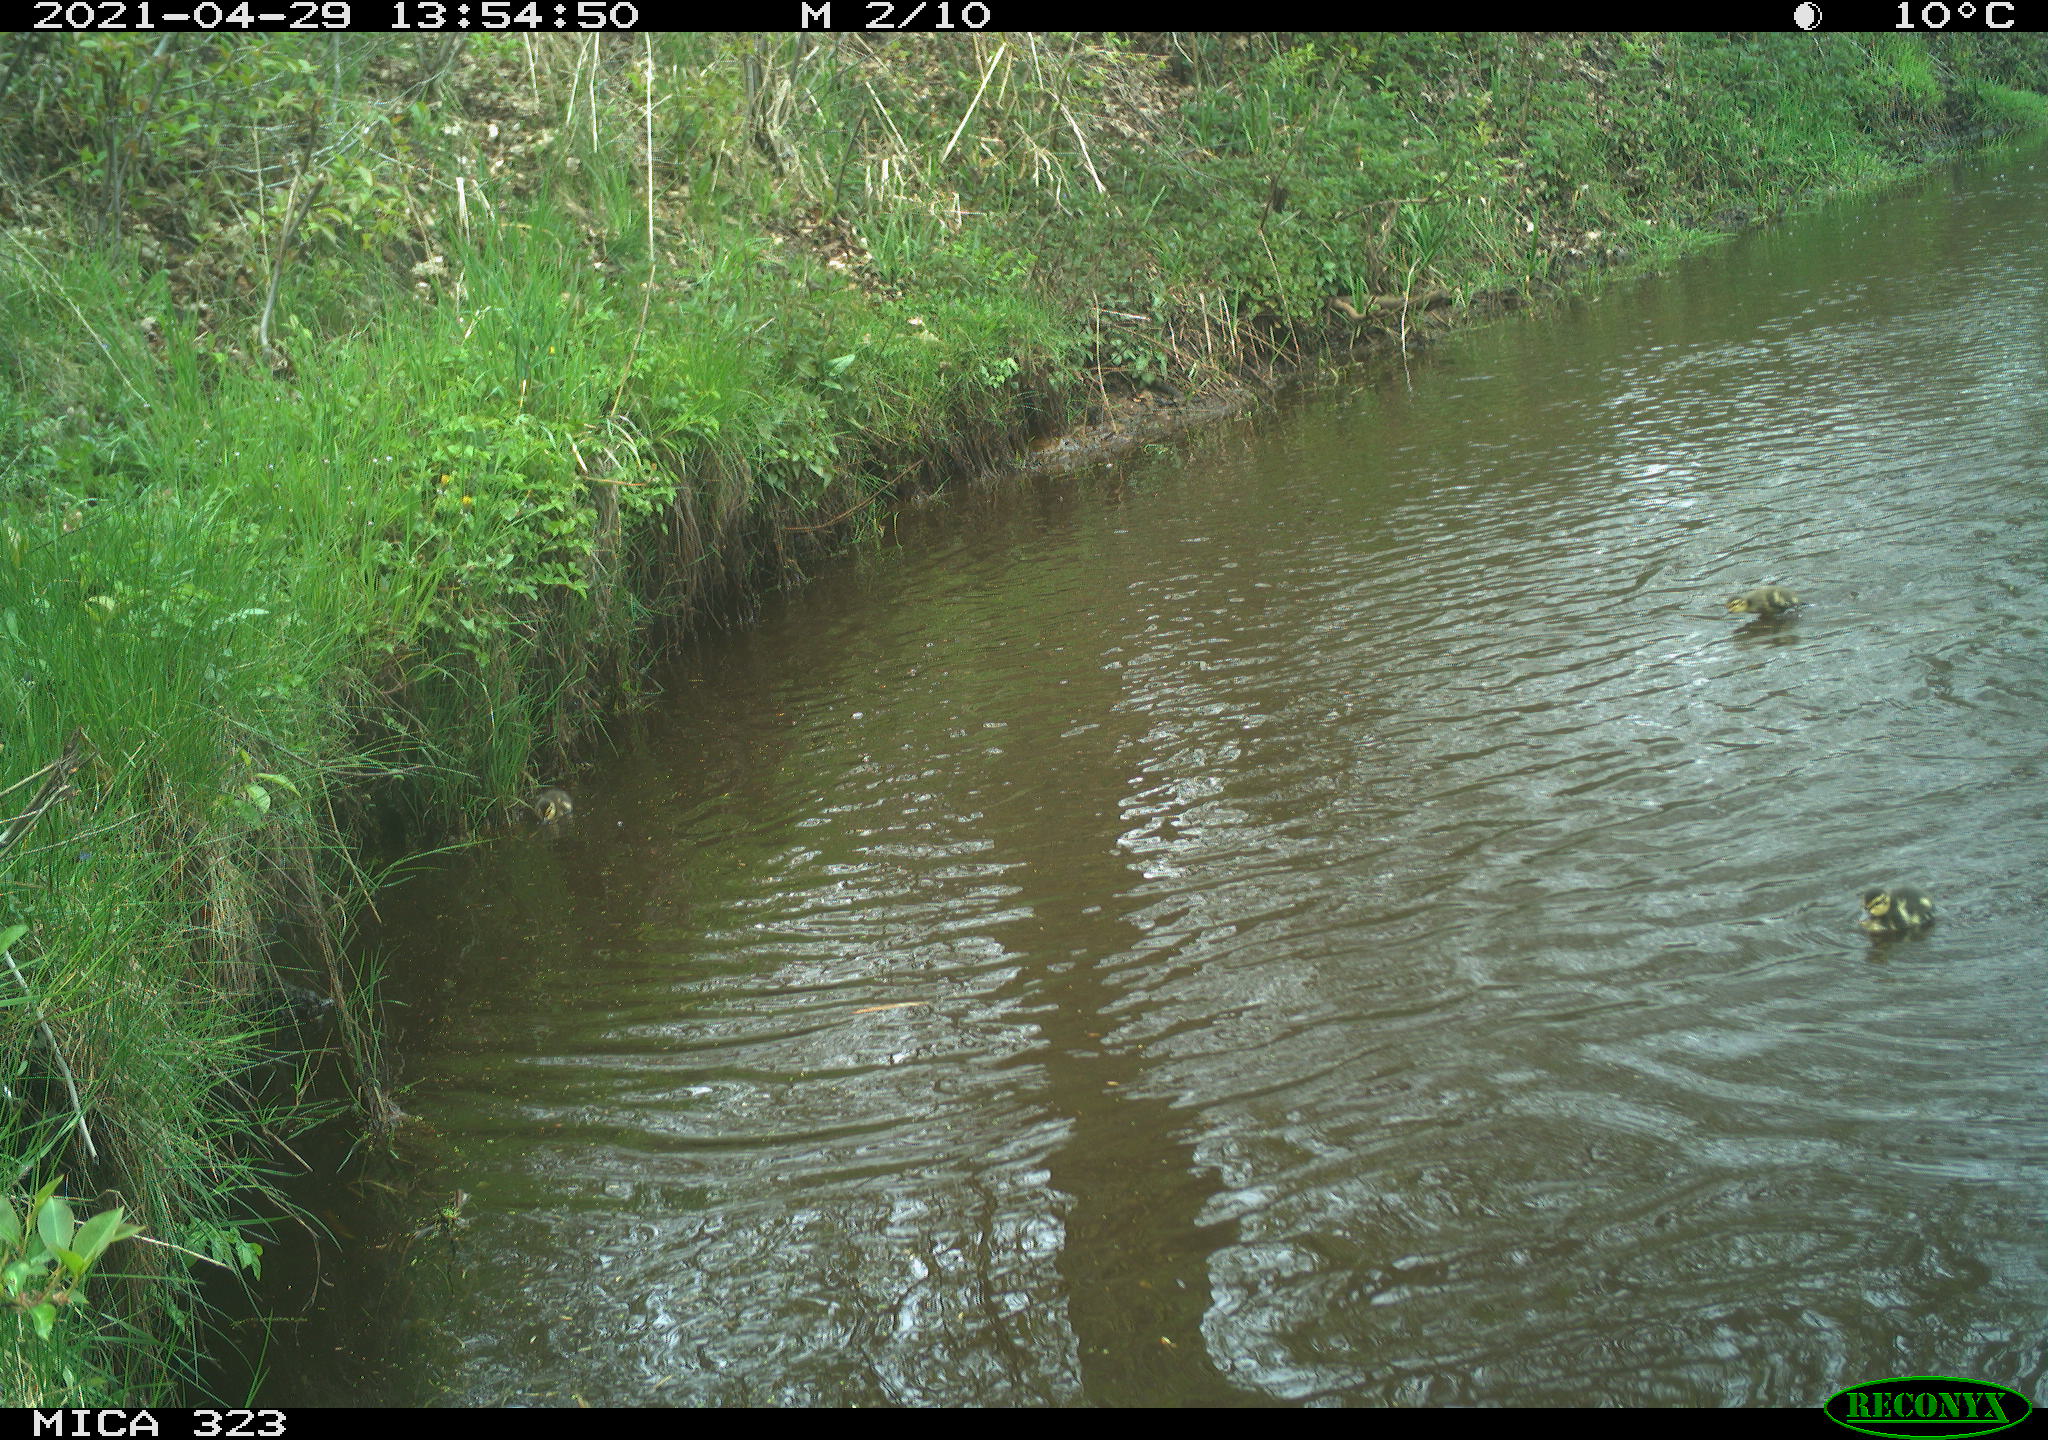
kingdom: Animalia
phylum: Chordata
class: Aves
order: Anseriformes
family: Anatidae
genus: Anas
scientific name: Anas platyrhynchos
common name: Mallard
